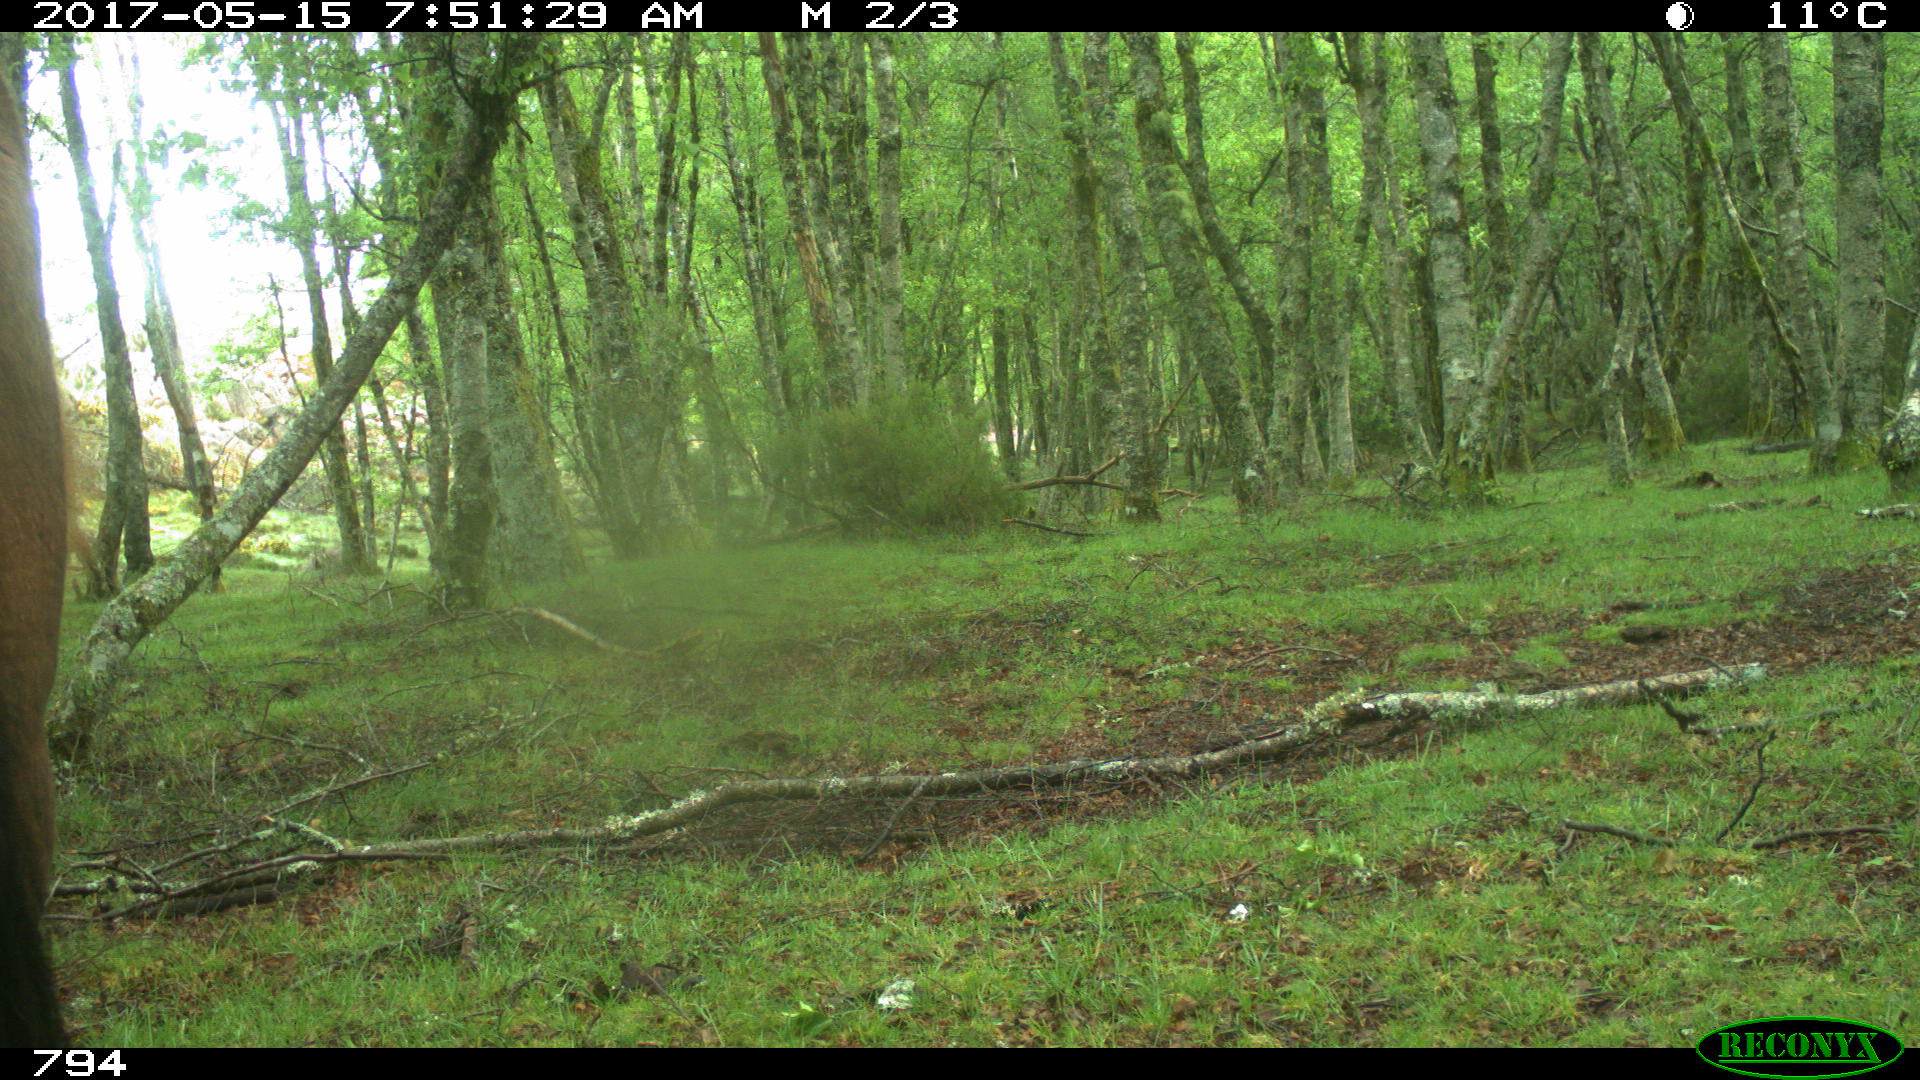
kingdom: Animalia
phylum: Chordata
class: Mammalia
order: Perissodactyla
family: Equidae
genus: Equus
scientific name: Equus caballus
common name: Horse
